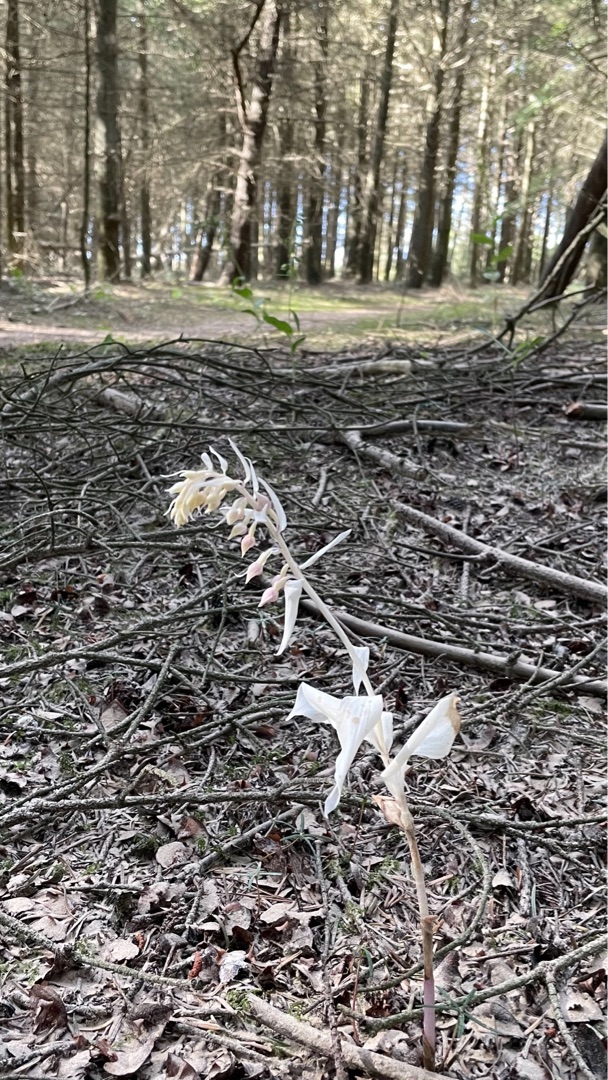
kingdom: Plantae
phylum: Tracheophyta
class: Liliopsida
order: Asparagales
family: Orchidaceae
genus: Epipactis
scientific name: Epipactis helleborine
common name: Skov-hullæbe
